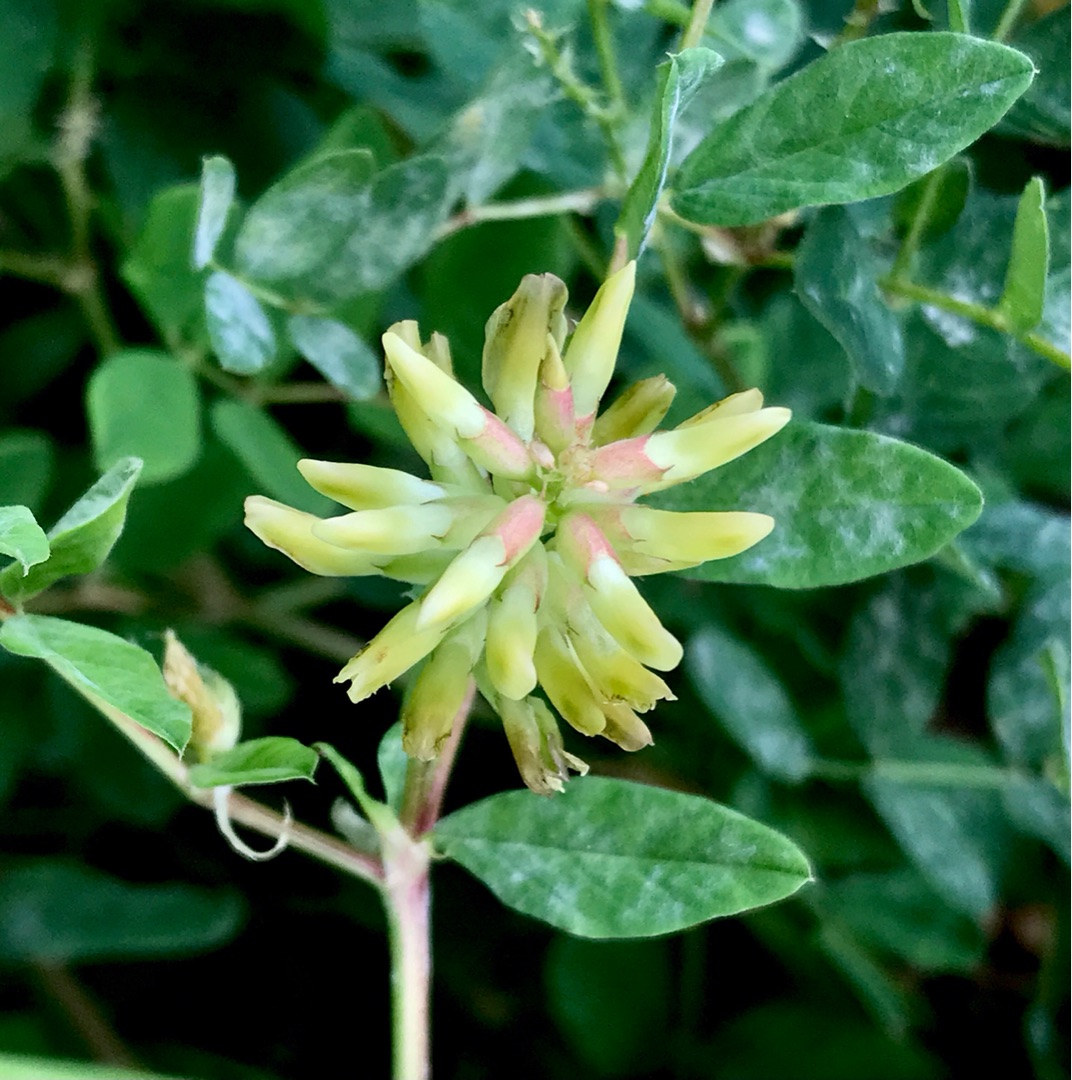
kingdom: Plantae
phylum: Tracheophyta
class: Magnoliopsida
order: Fabales
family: Fabaceae
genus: Astragalus
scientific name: Astragalus glycyphyllos
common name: Sød astragel
